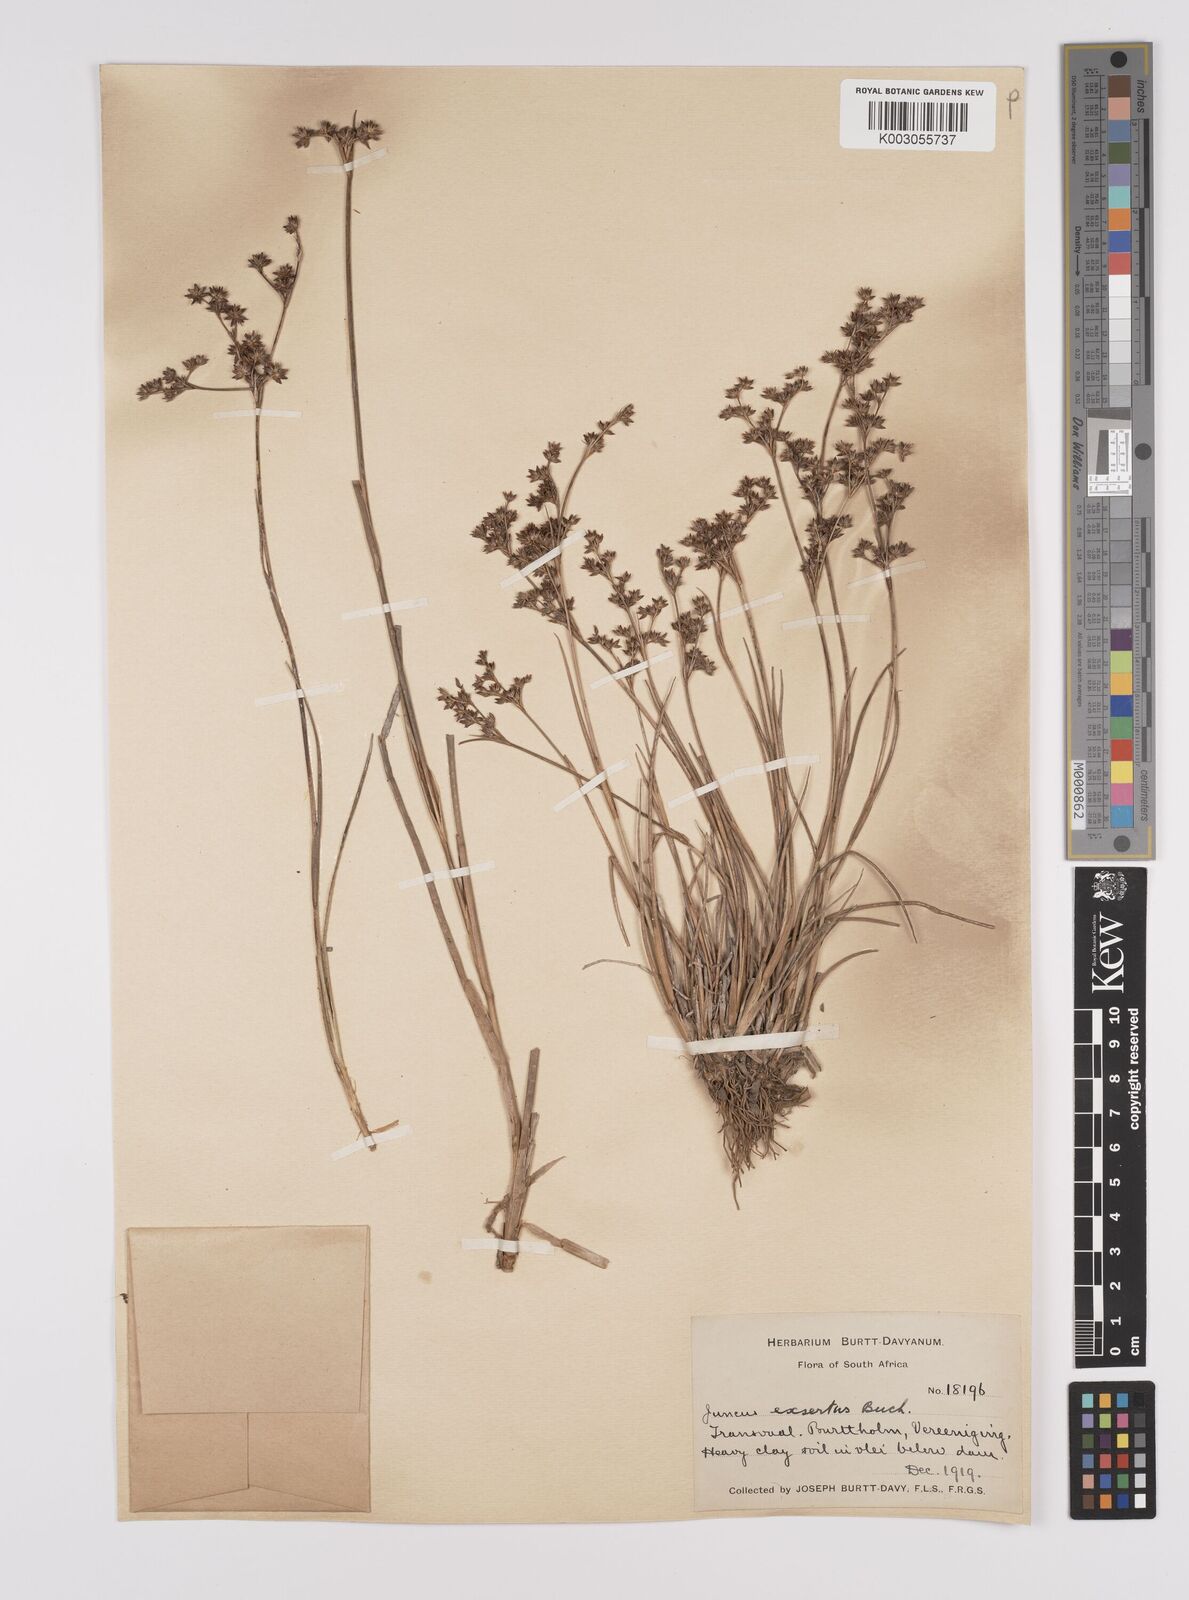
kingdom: Plantae
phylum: Tracheophyta
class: Liliopsida
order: Poales
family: Juncaceae
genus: Juncus
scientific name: Juncus exsertus
